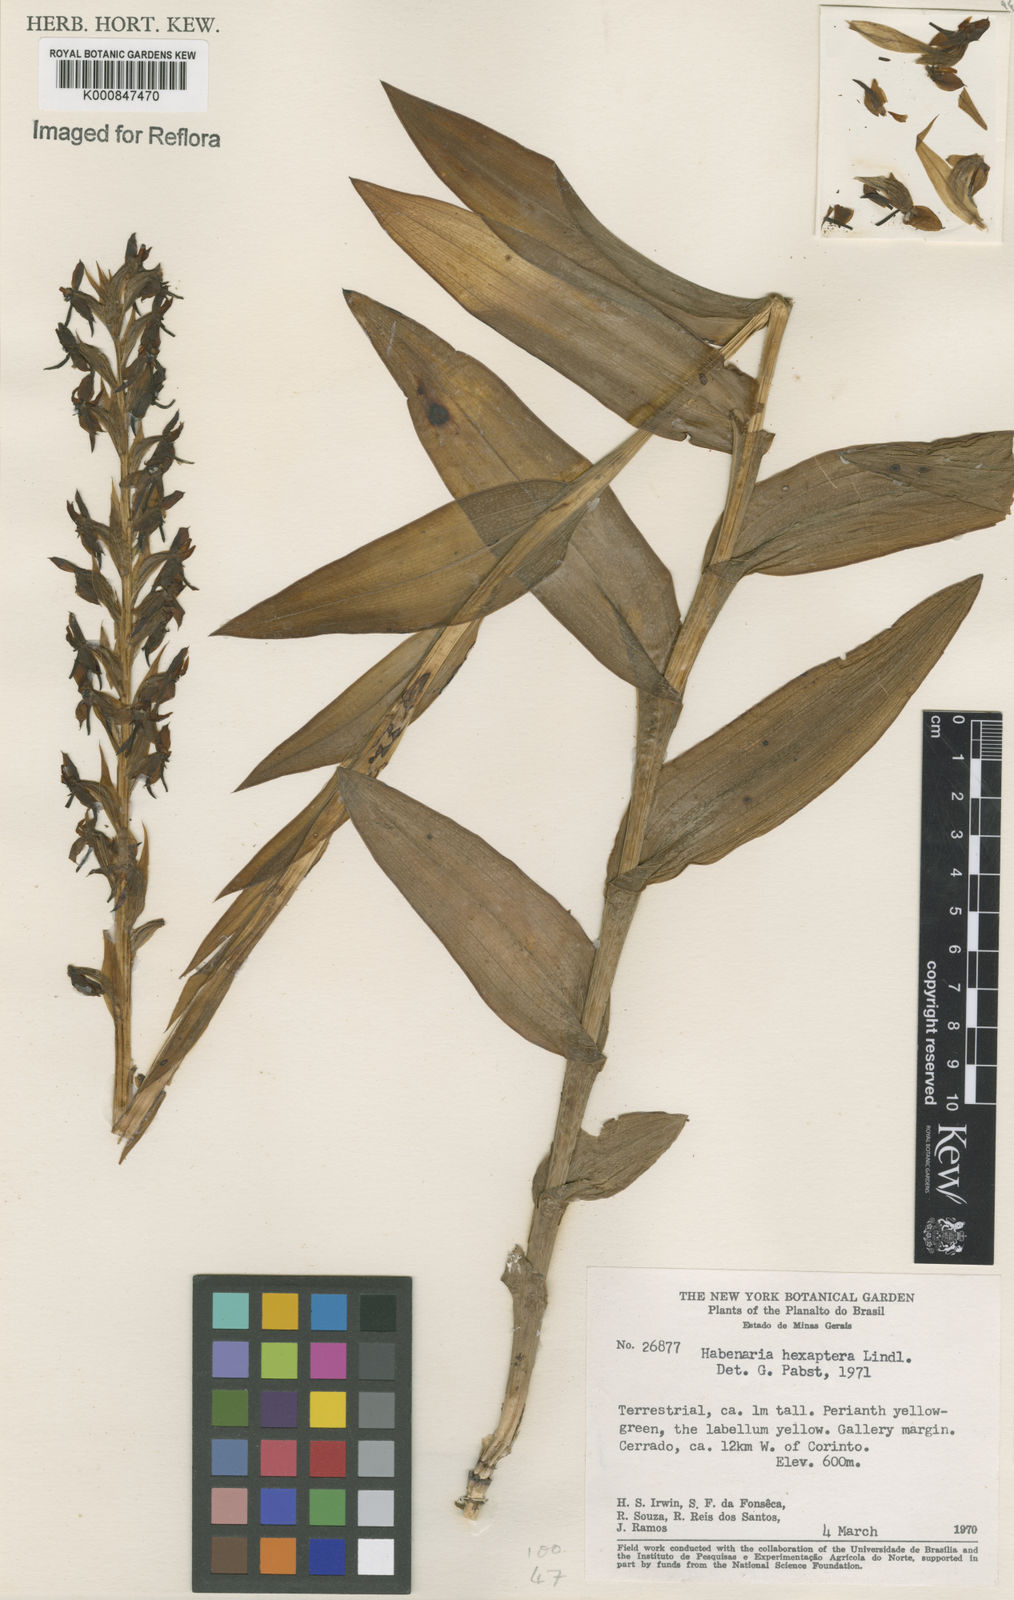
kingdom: Plantae
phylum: Tracheophyta
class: Liliopsida
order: Asparagales
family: Orchidaceae
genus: Habenaria
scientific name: Habenaria hexaptera
